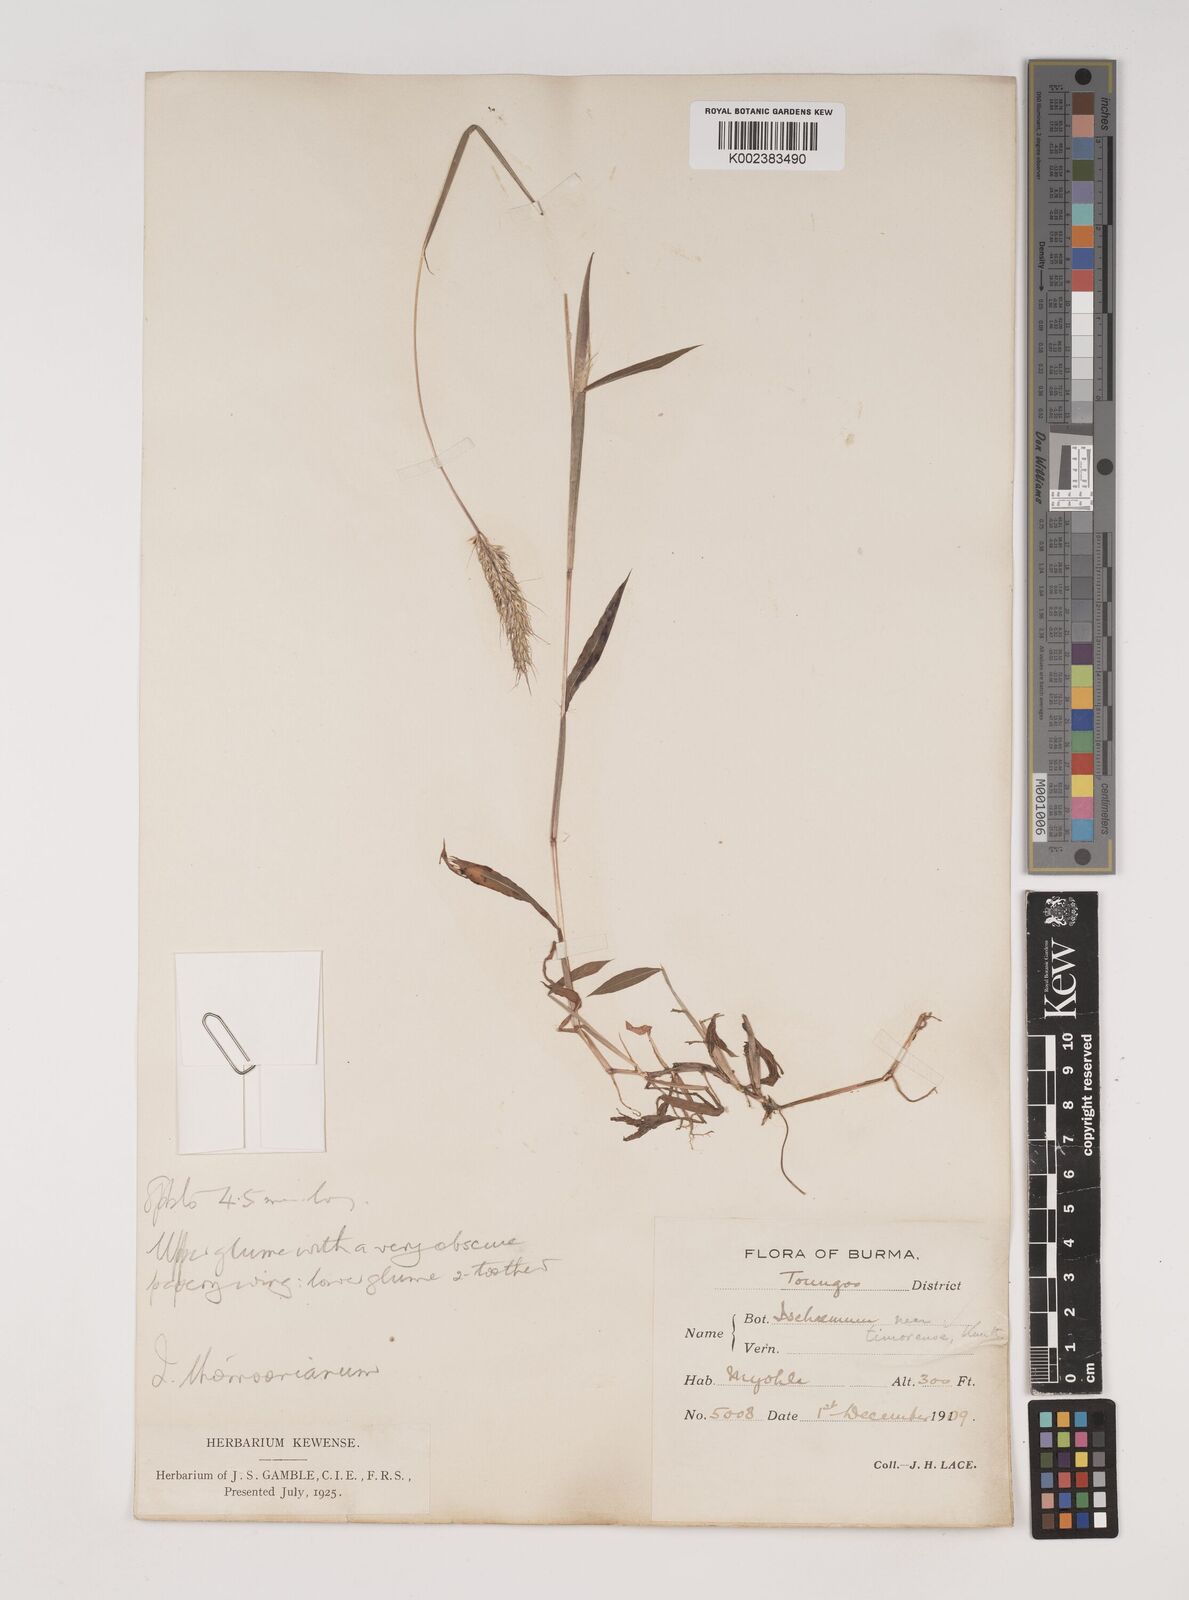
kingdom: Plantae
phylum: Tracheophyta
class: Liliopsida
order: Poales
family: Poaceae
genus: Ischaemum
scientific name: Ischaemum thomsonianum
